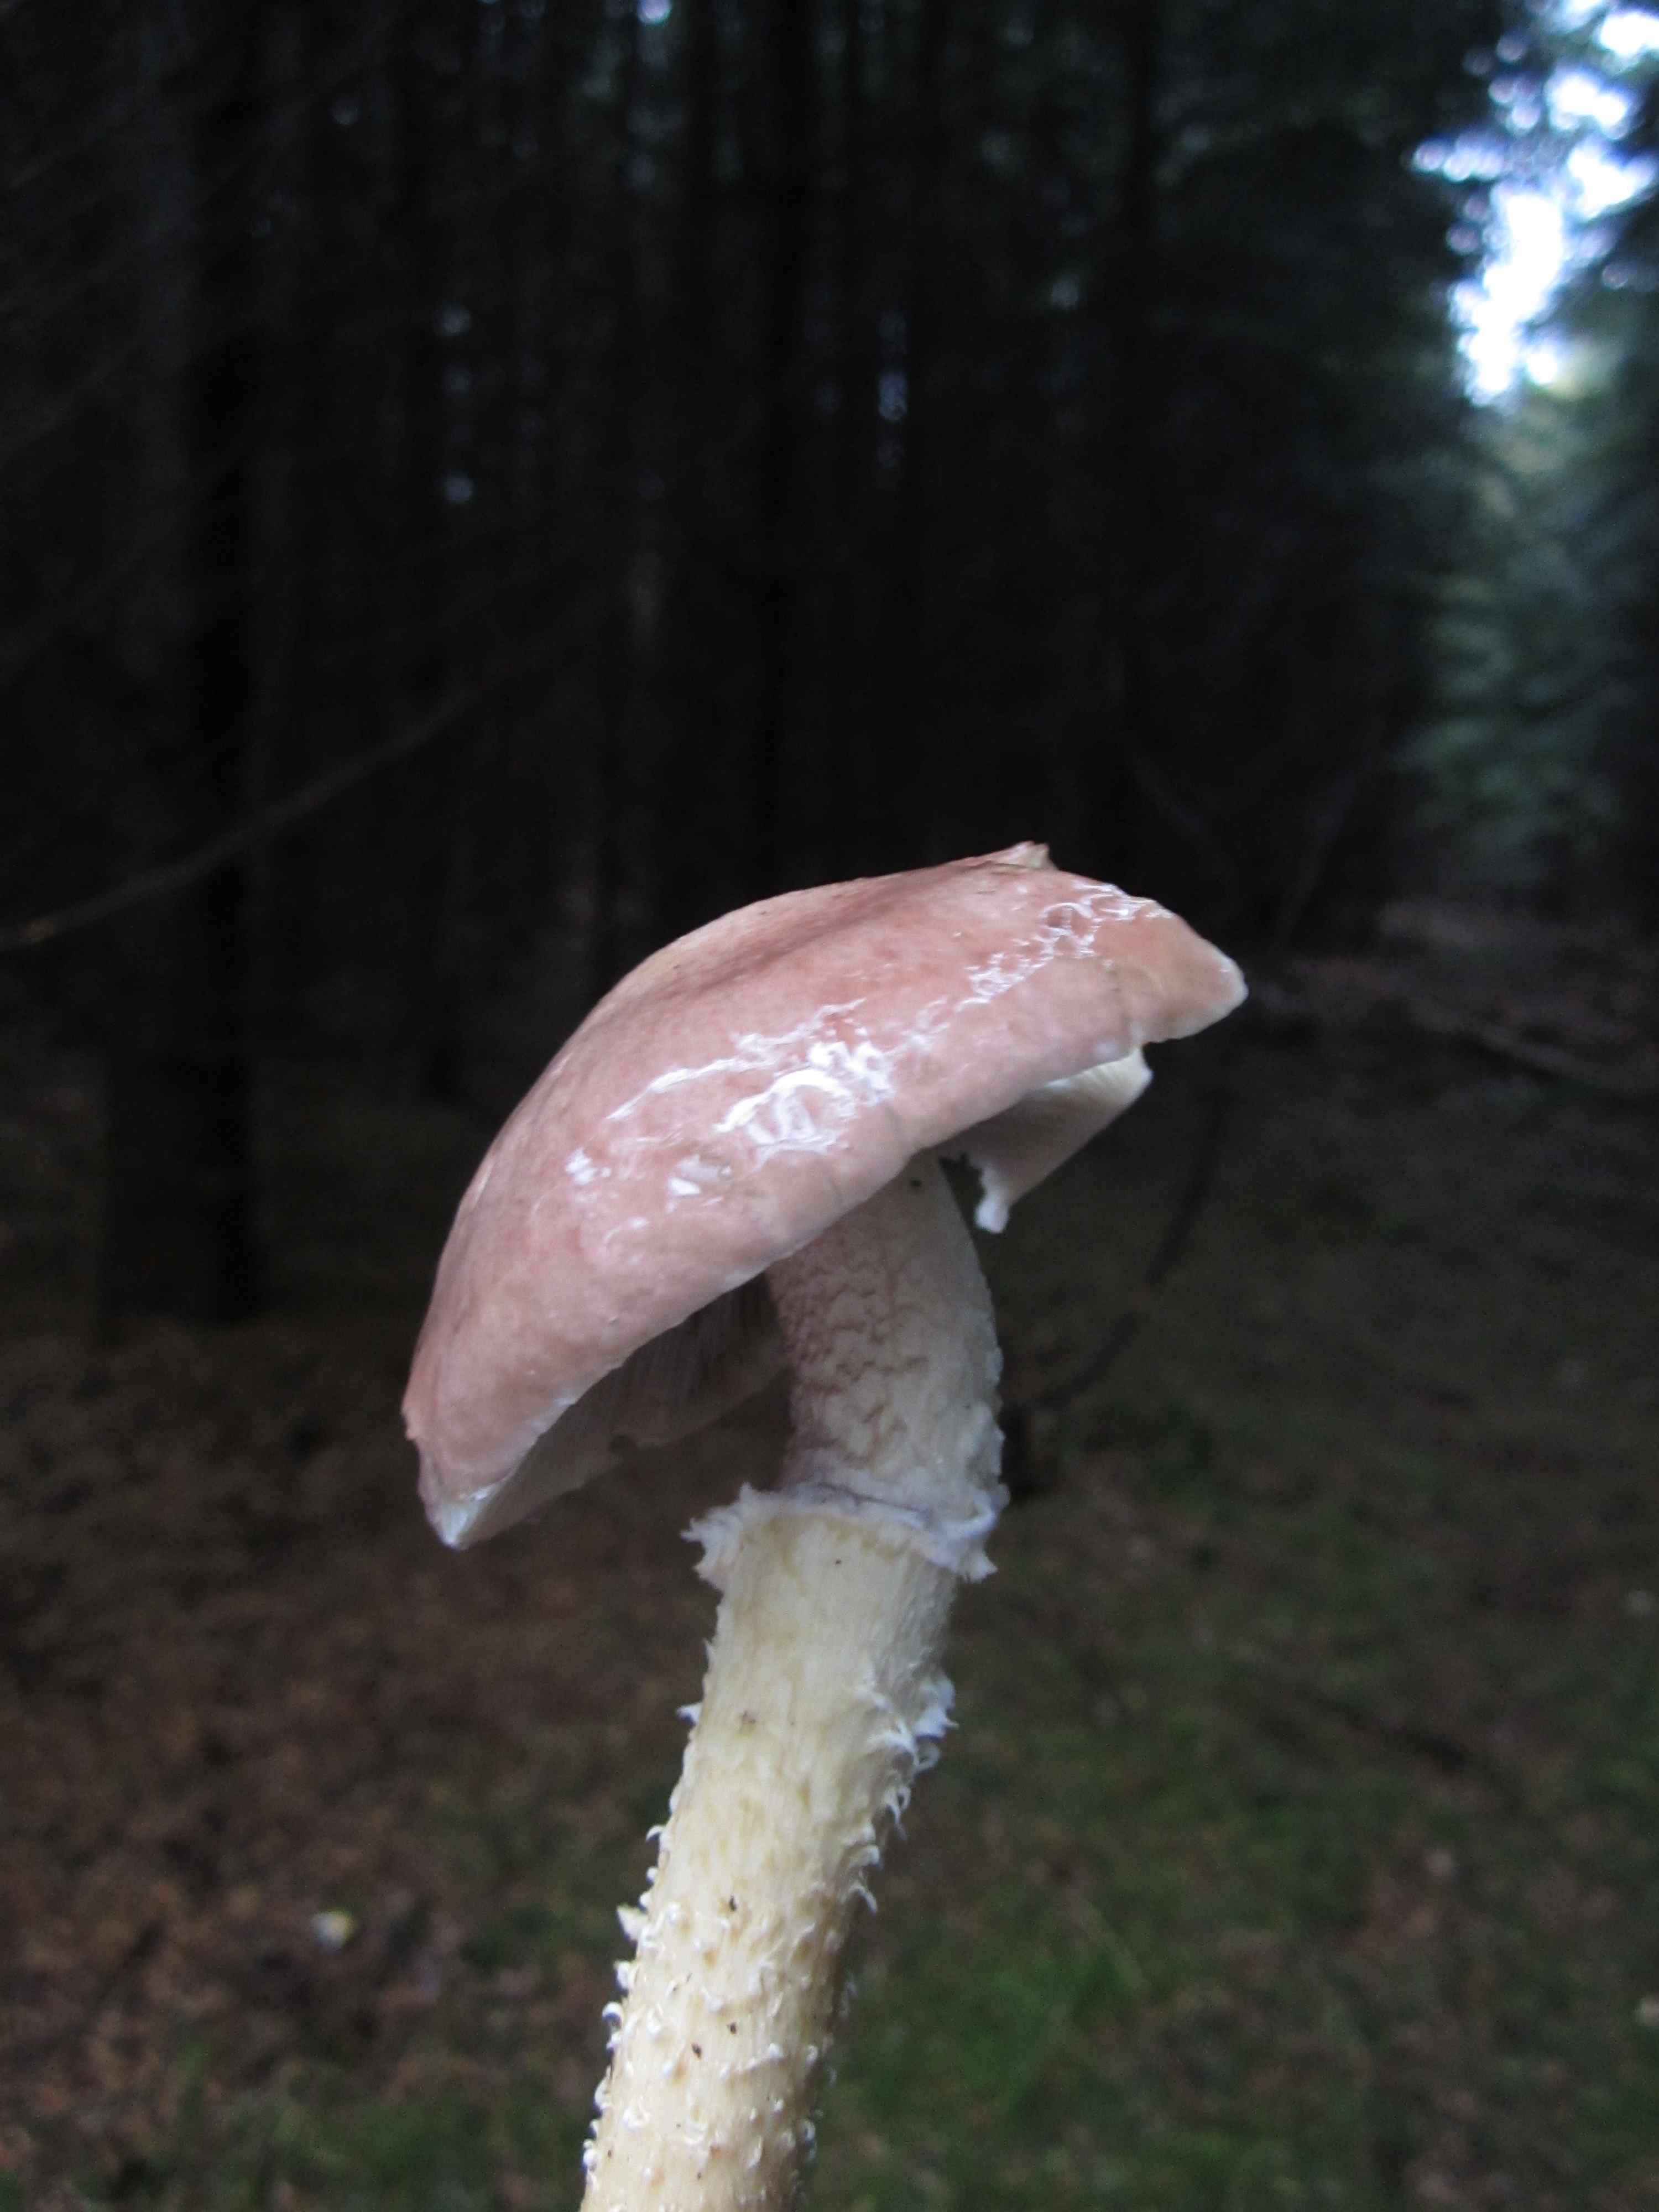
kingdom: Fungi
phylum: Basidiomycota
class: Agaricomycetes
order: Agaricales
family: Strophariaceae
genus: Stropharia
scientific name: Stropharia hornemannii
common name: nordisk bredblad
